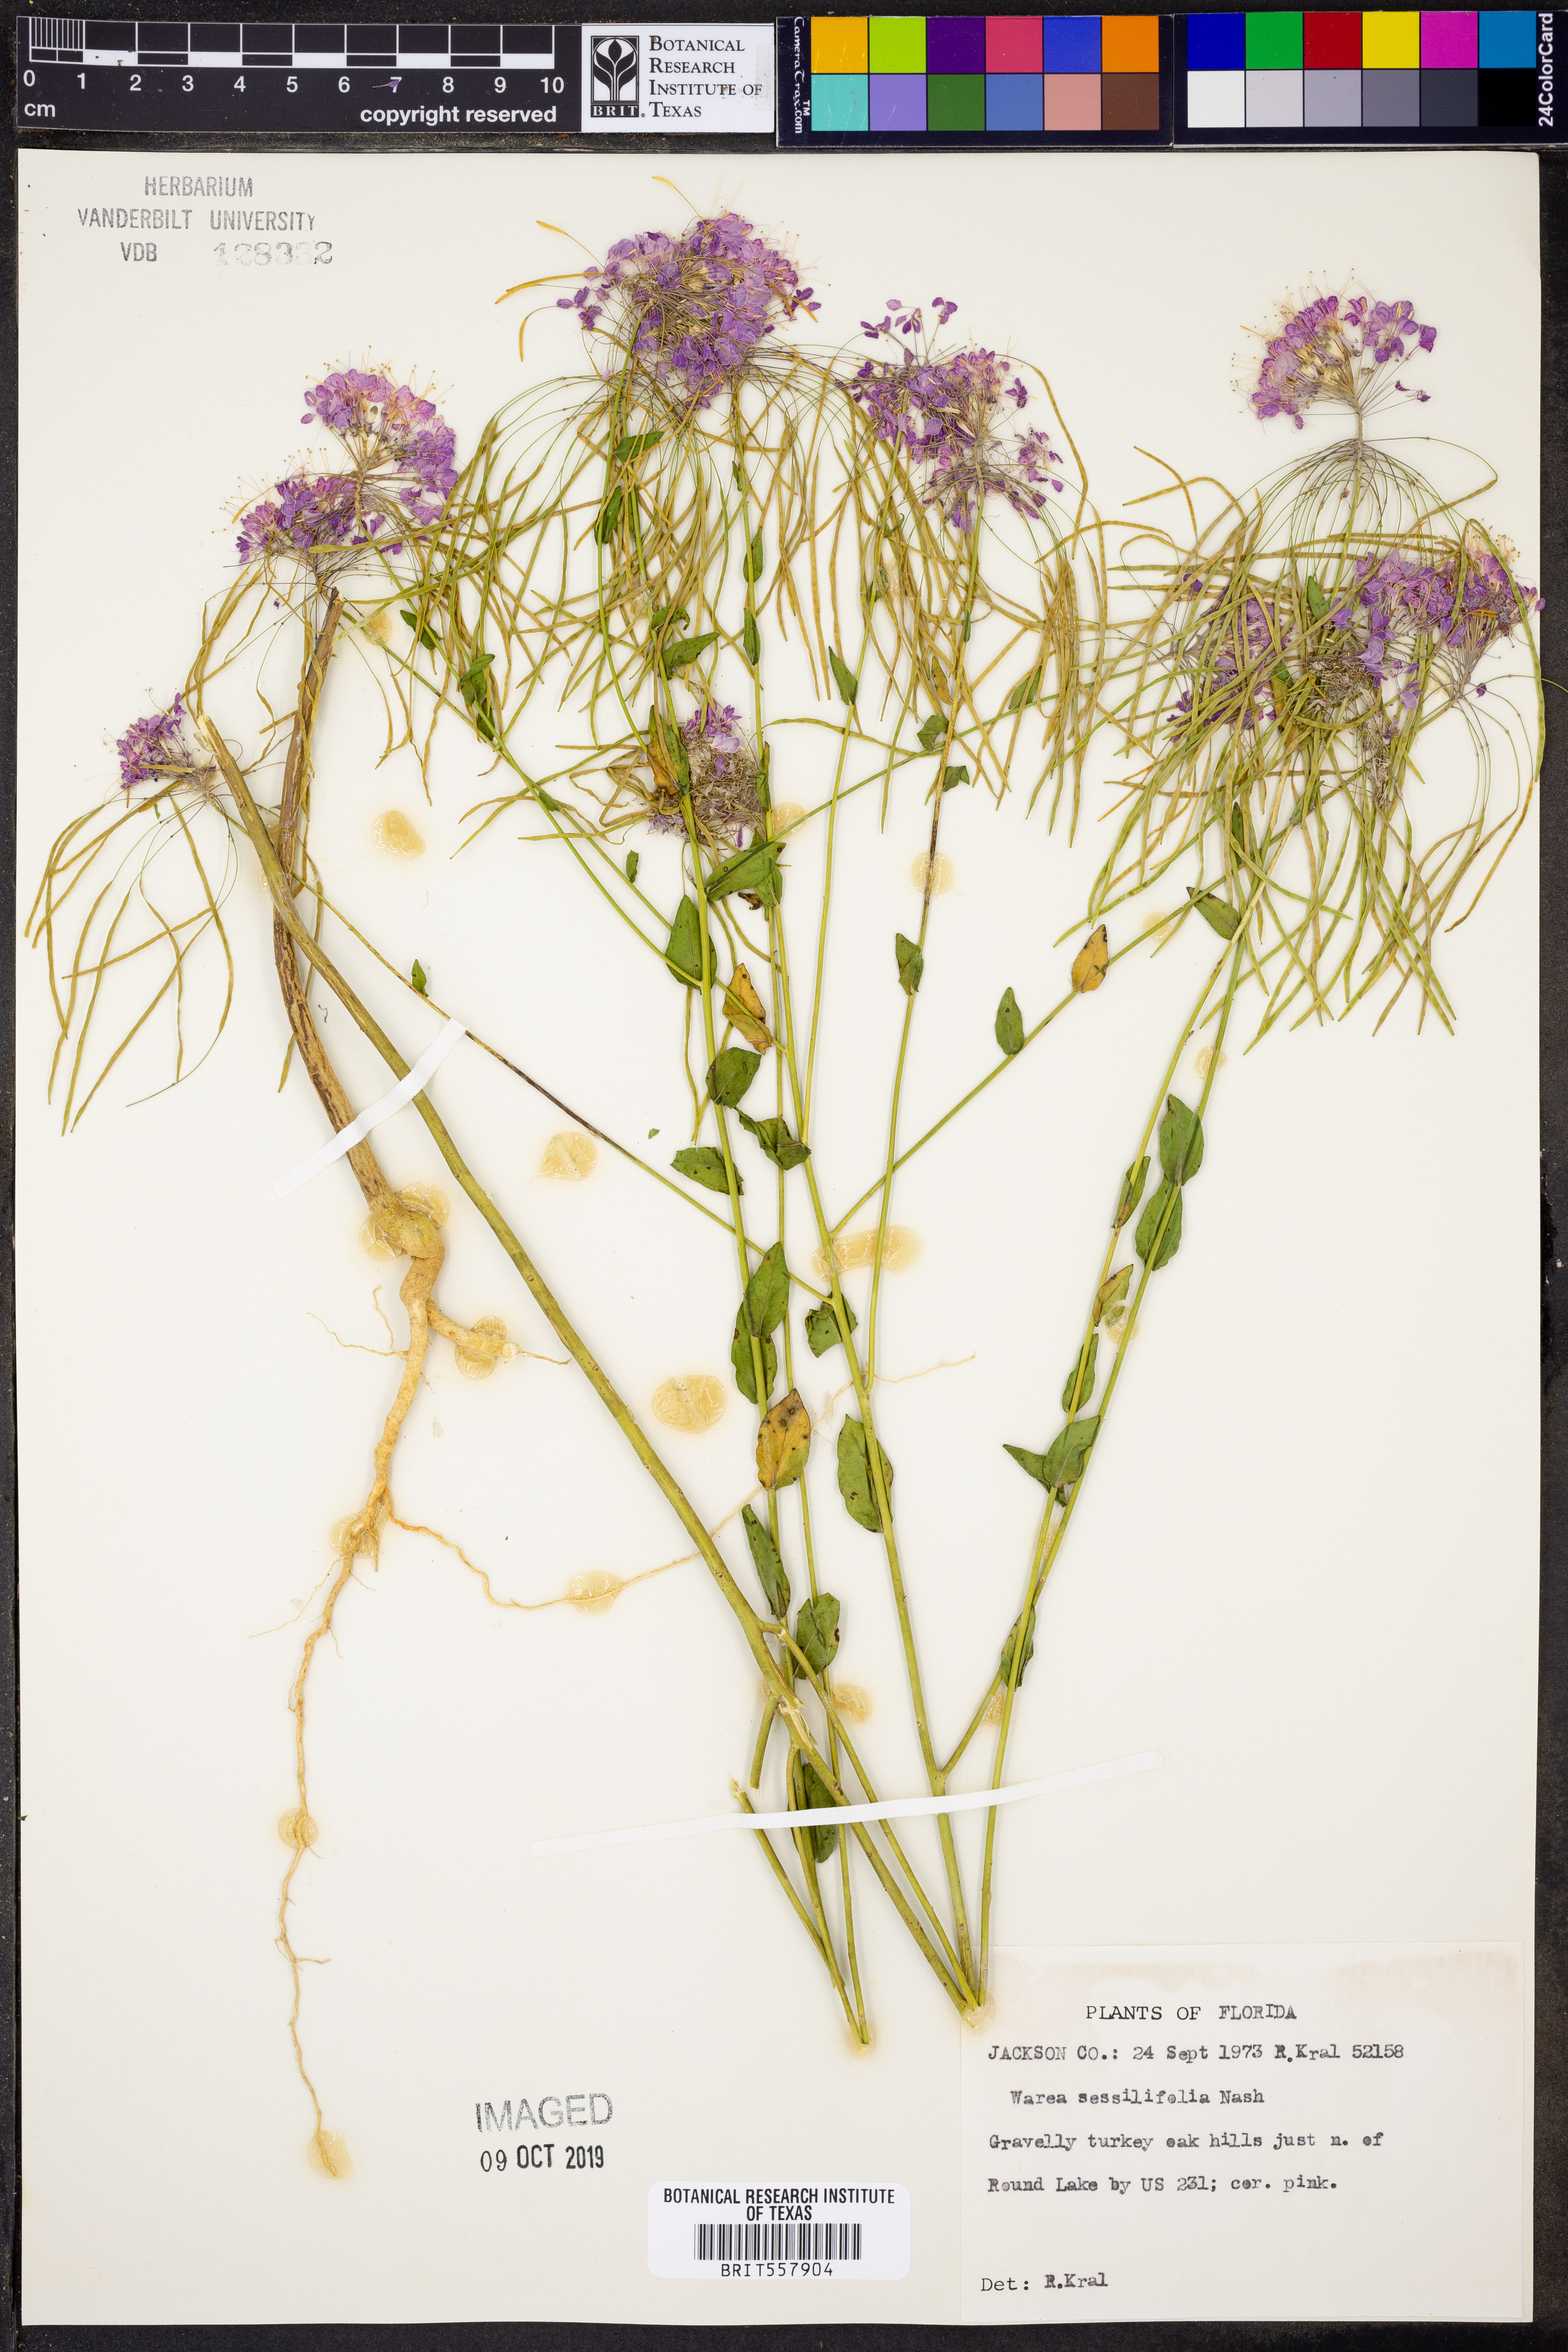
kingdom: Plantae
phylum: Tracheophyta
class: Magnoliopsida
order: Brassicales
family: Brassicaceae
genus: Warea
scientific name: Warea sessilifolia
